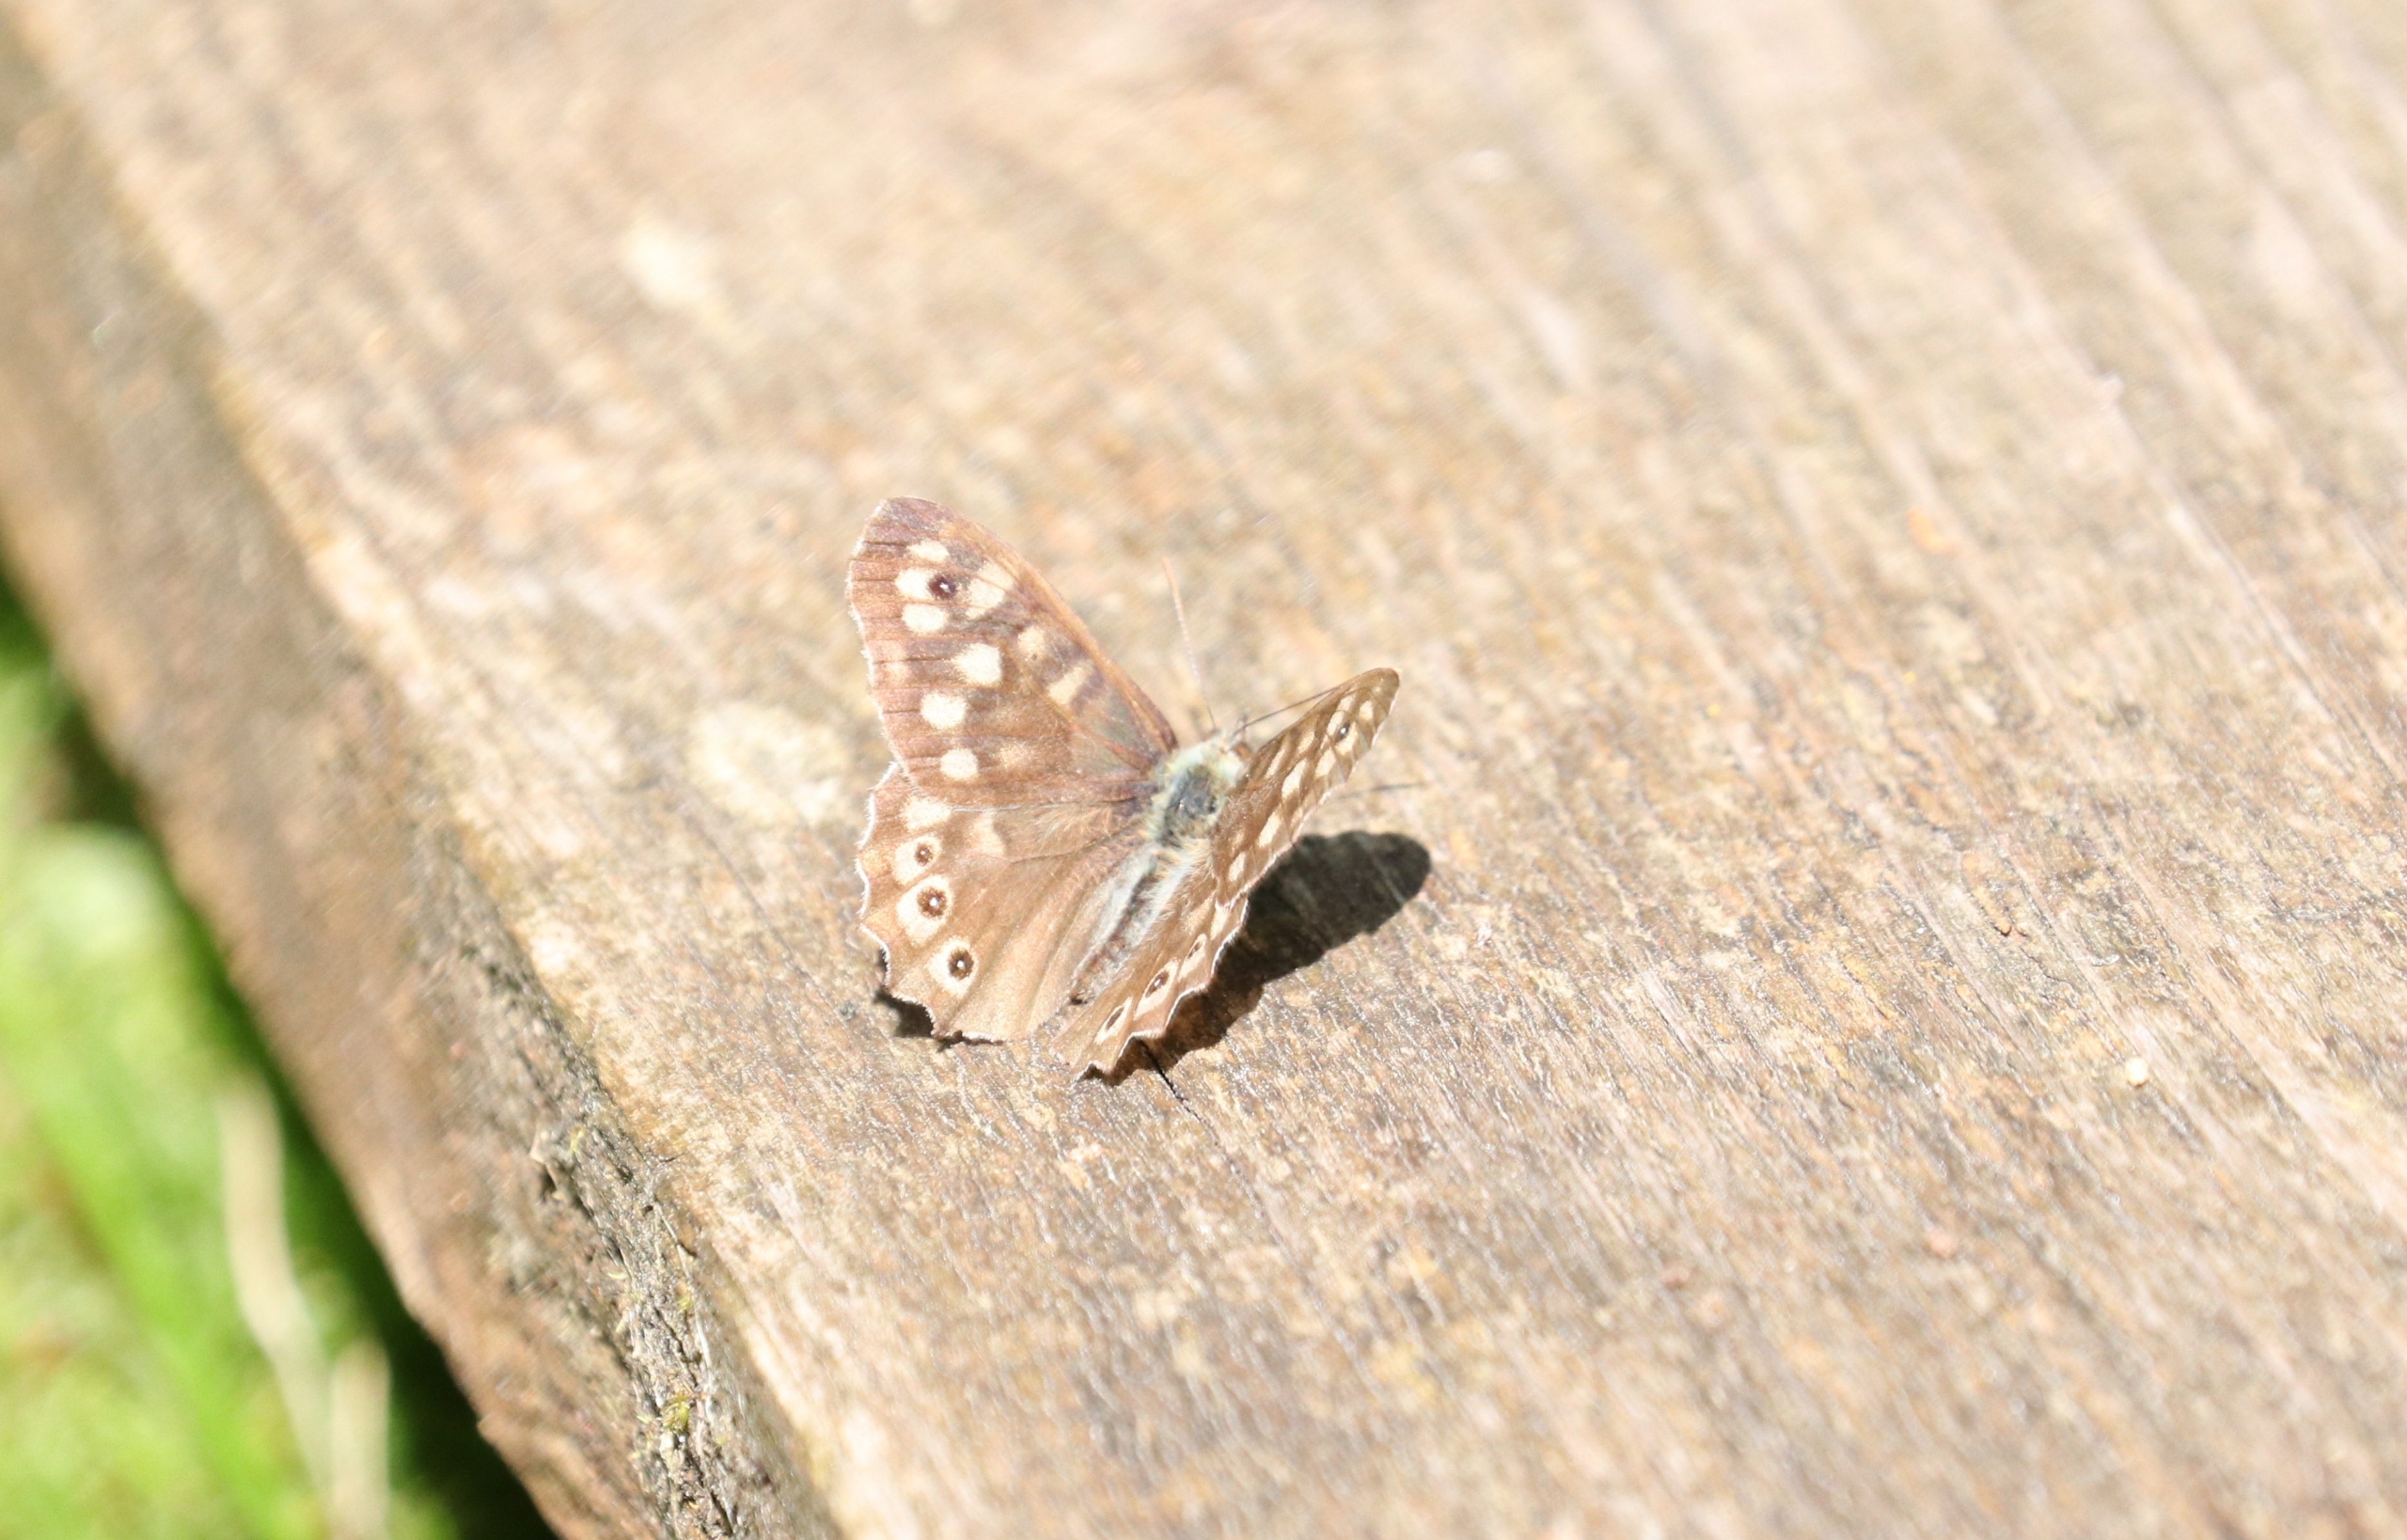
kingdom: Animalia
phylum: Arthropoda
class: Insecta
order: Lepidoptera
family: Nymphalidae
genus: Pararge
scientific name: Pararge aegeria
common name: Skovrandøje
